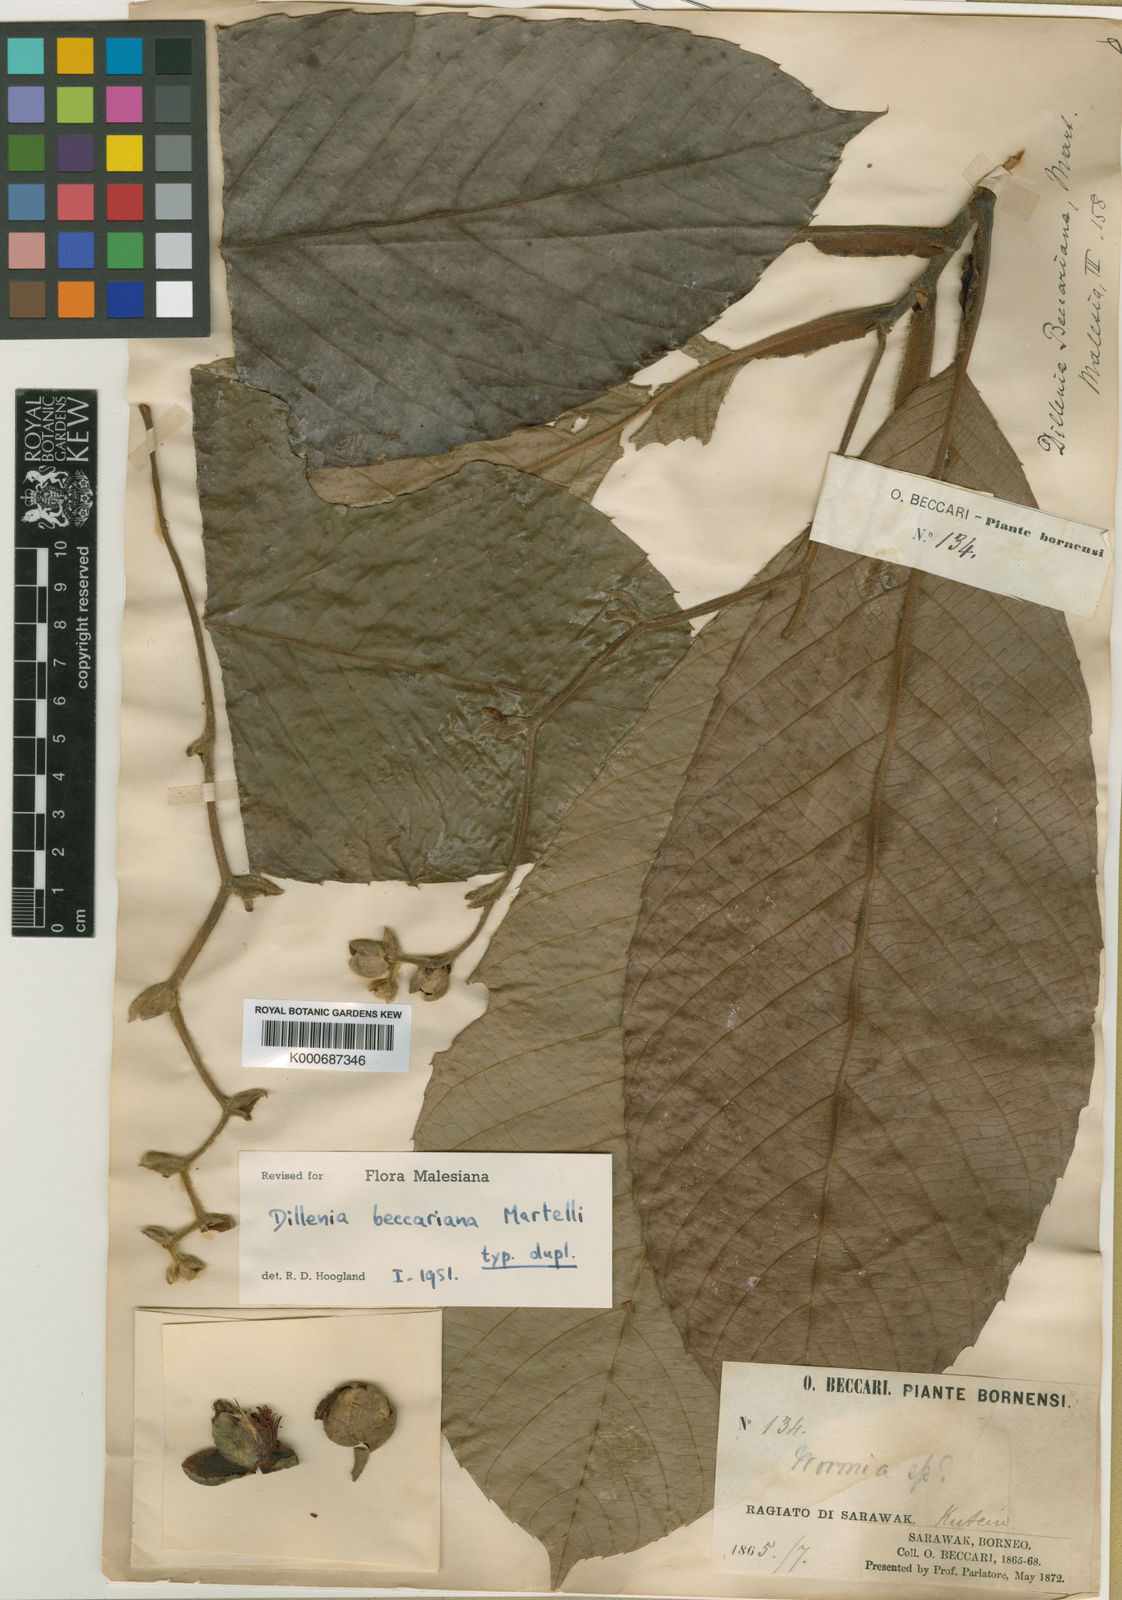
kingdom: Plantae
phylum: Tracheophyta
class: Magnoliopsida
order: Dilleniales
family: Dilleniaceae
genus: Dillenia
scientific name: Dillenia beccariana
